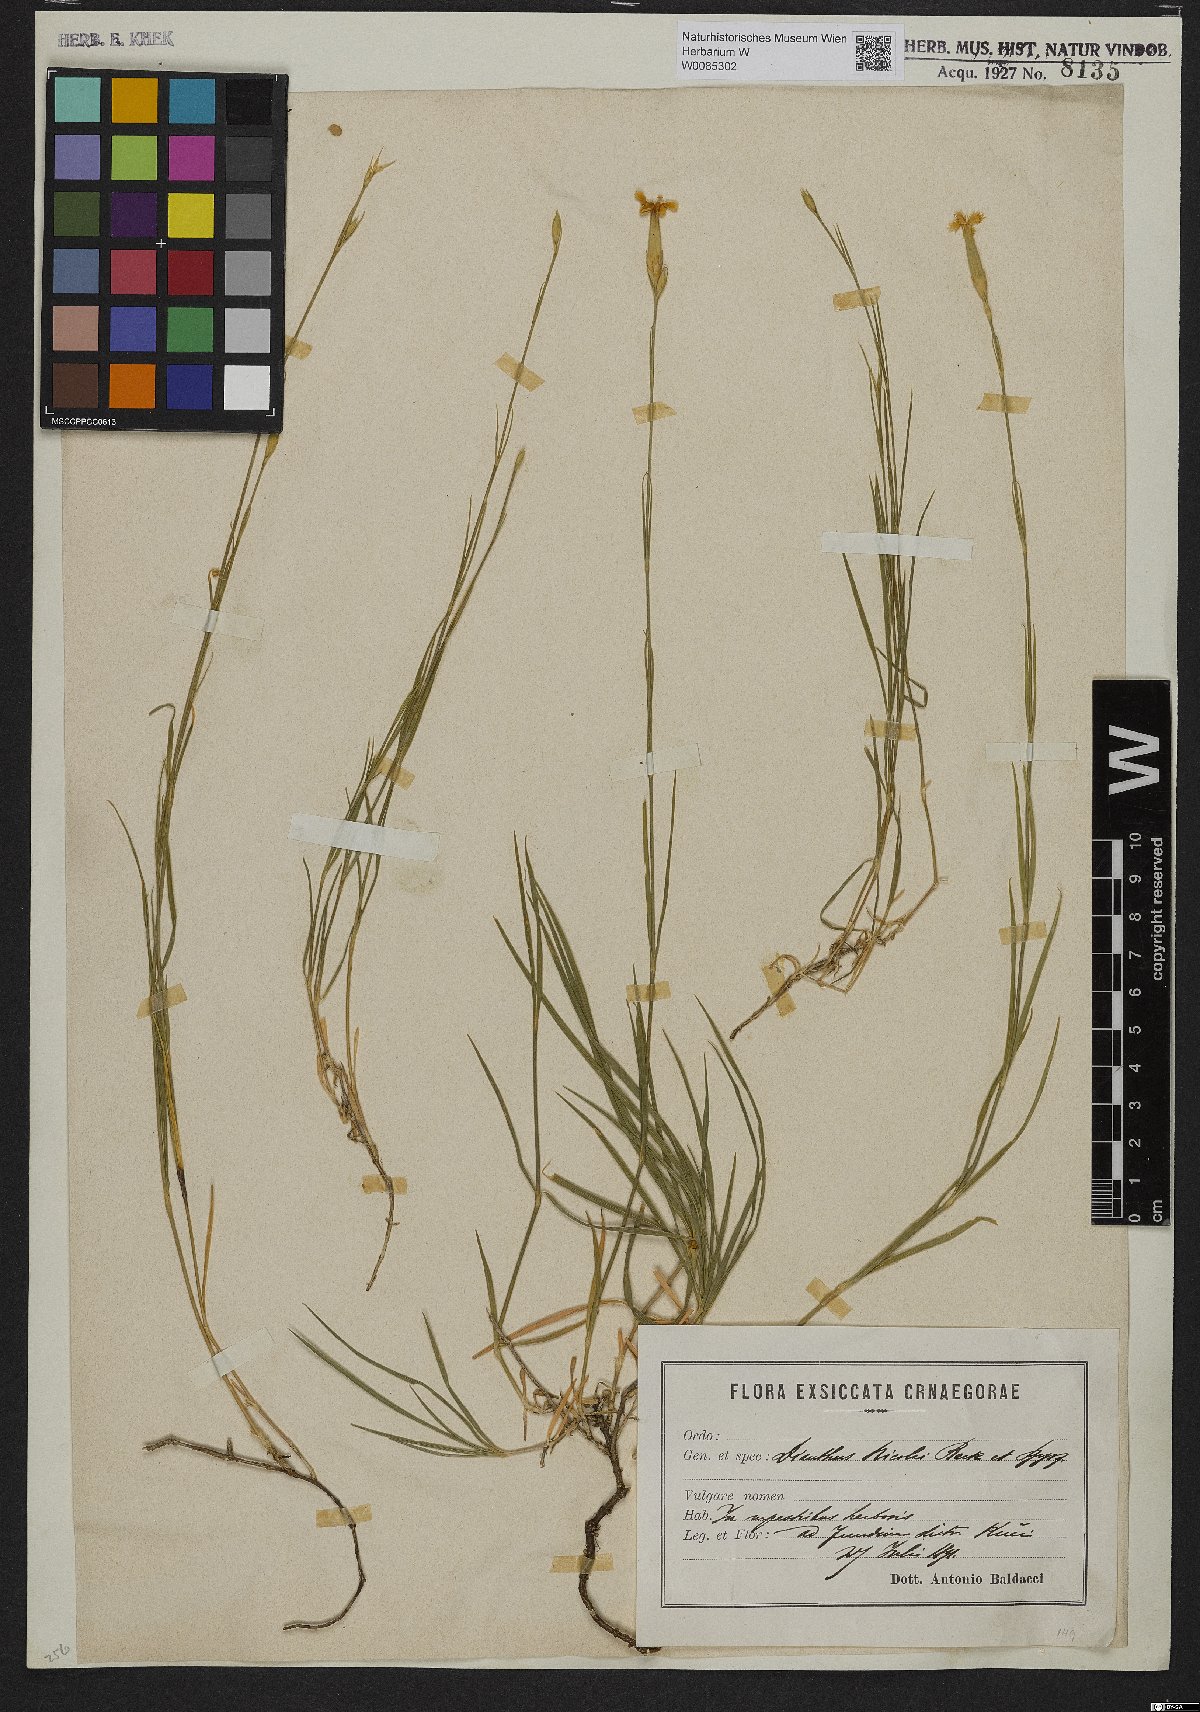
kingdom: Plantae
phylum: Tracheophyta
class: Magnoliopsida
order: Caryophyllales
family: Caryophyllaceae
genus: Dianthus
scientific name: Dianthus petraeus
